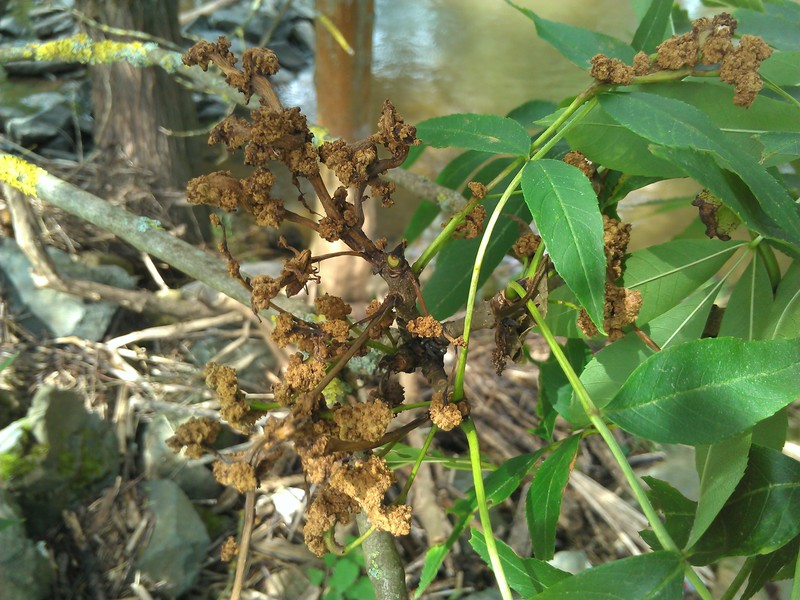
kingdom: Plantae
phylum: Tracheophyta
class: Magnoliopsida
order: Lamiales
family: Oleaceae
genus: Fraxinus
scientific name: Fraxinus excelsior
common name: European ash
